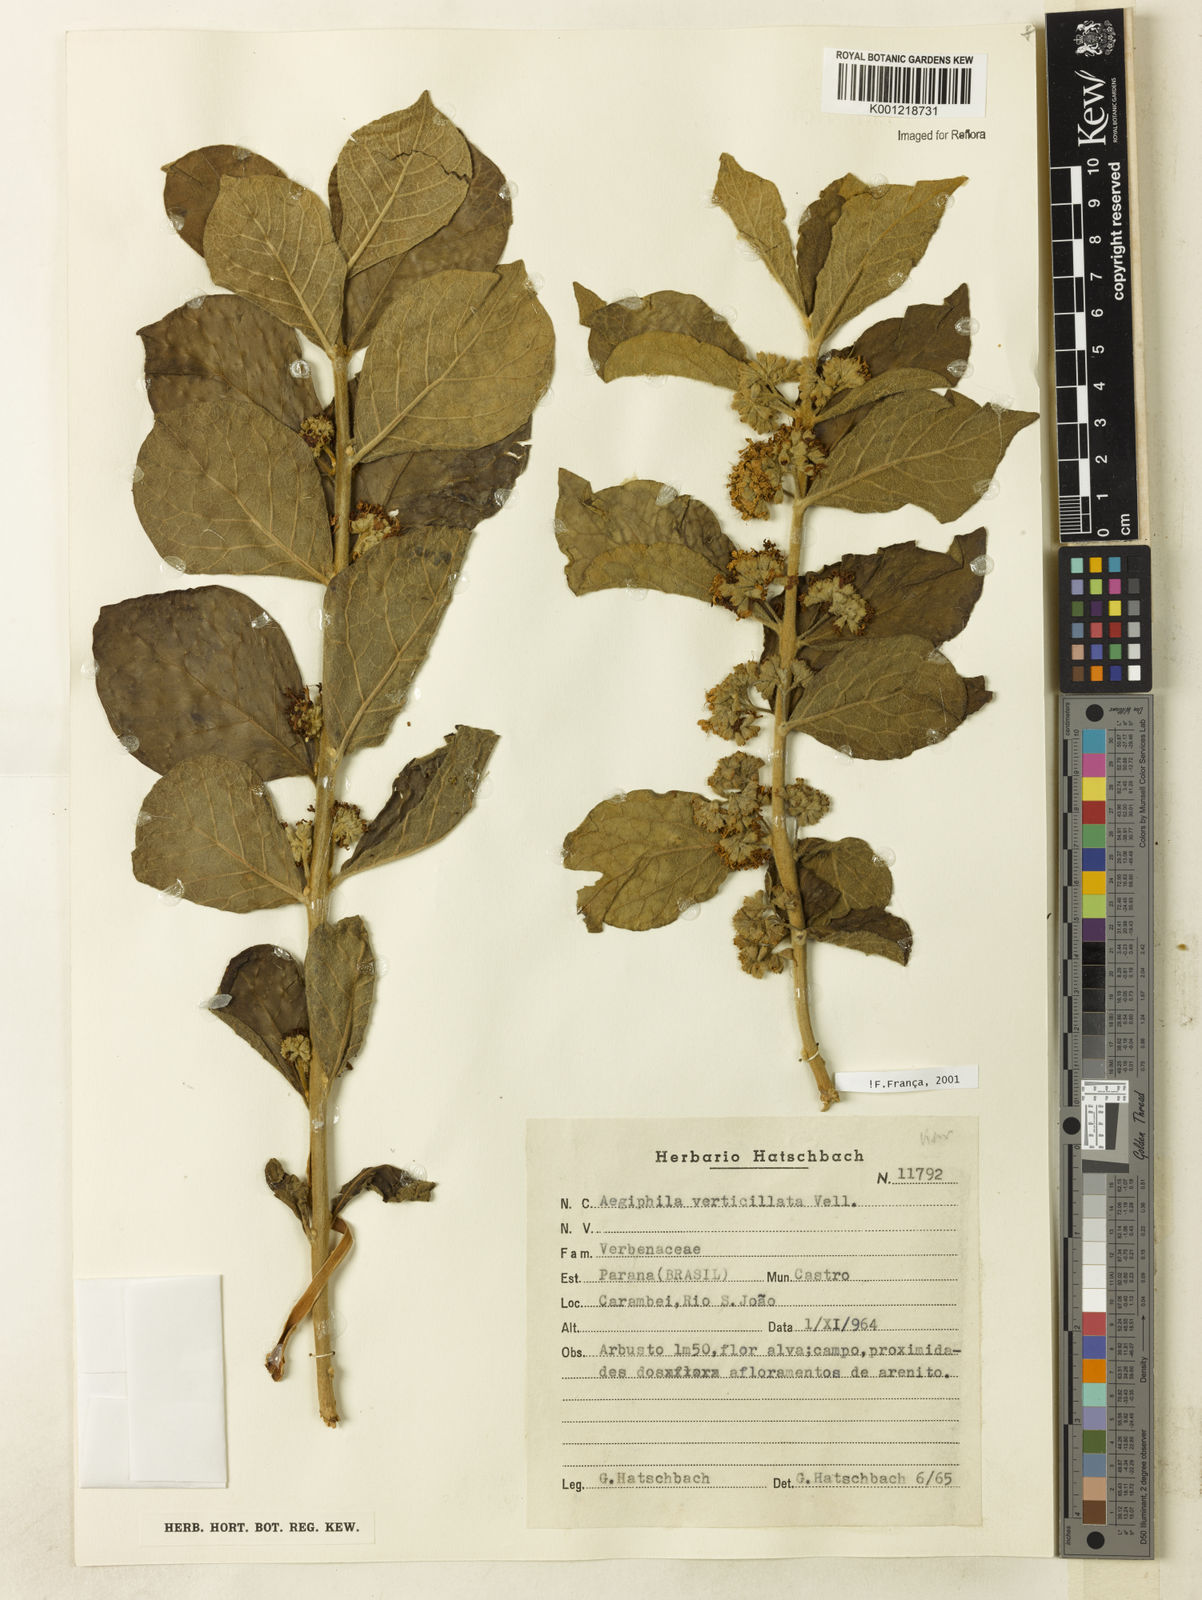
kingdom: Plantae
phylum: Tracheophyta
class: Magnoliopsida
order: Lamiales
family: Lamiaceae
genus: Aegiphila
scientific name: Aegiphila verticillata
